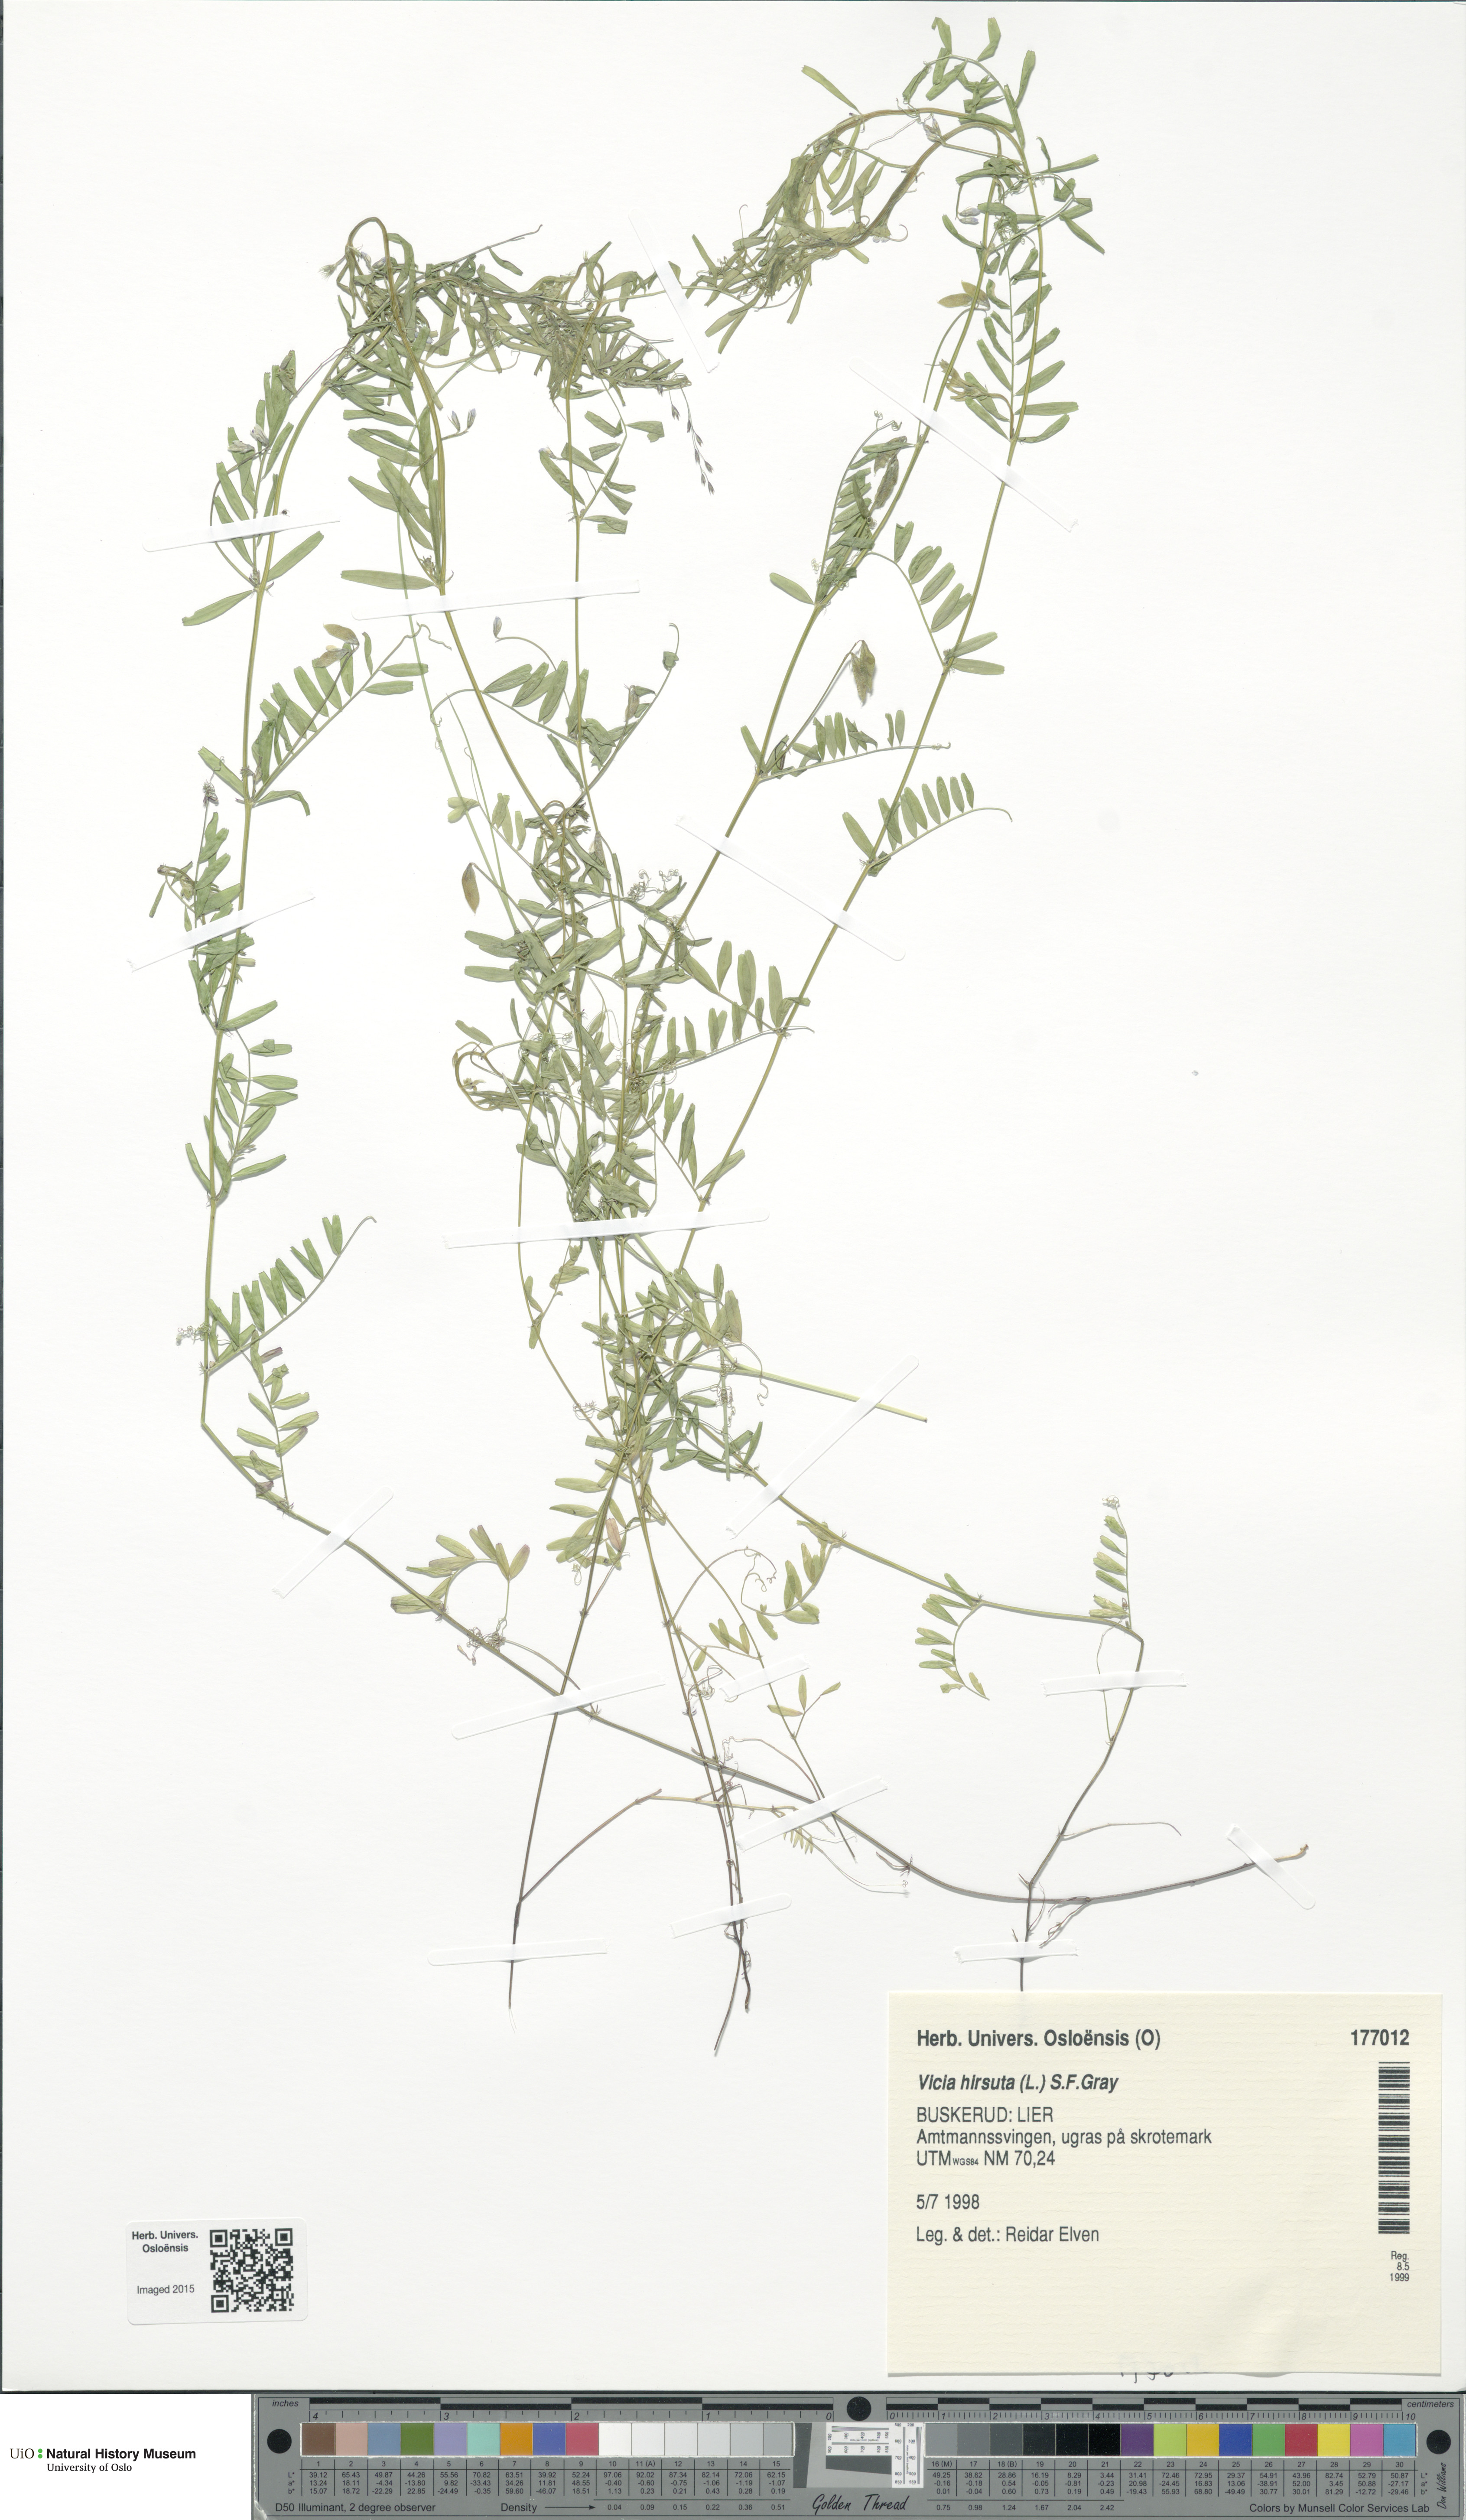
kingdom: Plantae
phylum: Tracheophyta
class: Magnoliopsida
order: Fabales
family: Fabaceae
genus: Vicia
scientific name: Vicia hirsuta
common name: Tiny vetch
